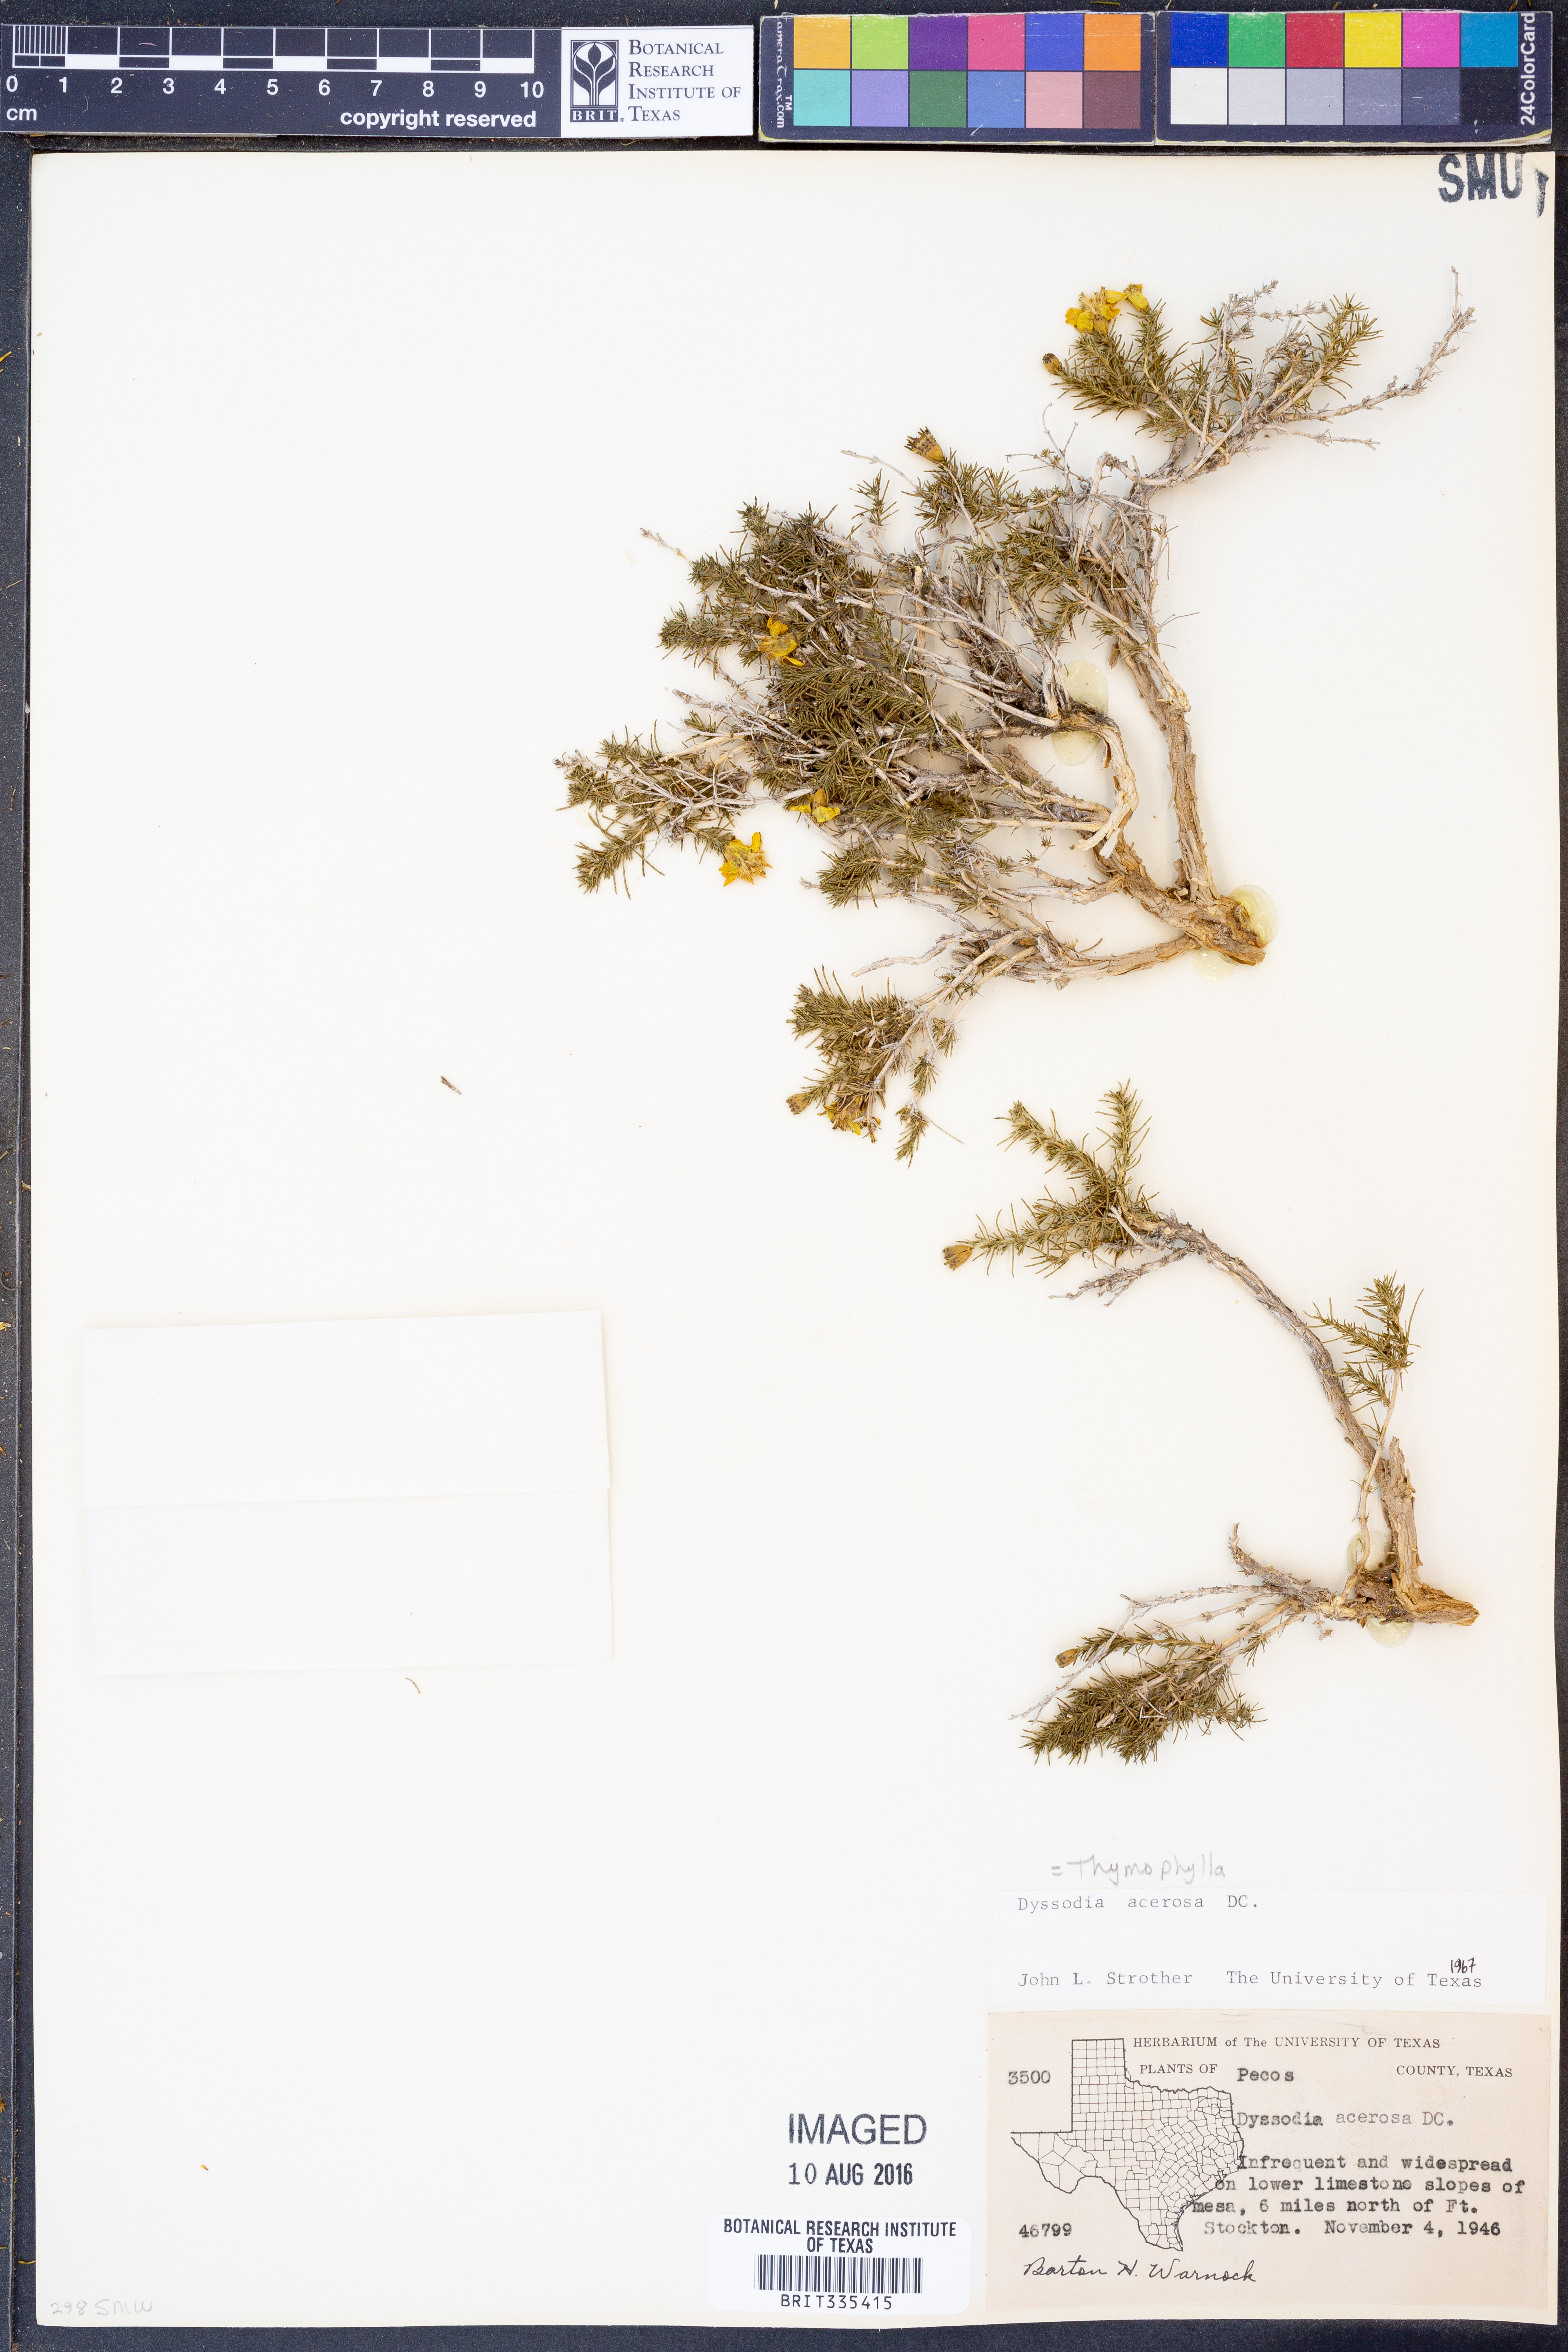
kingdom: Plantae
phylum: Tracheophyta
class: Magnoliopsida
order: Asterales
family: Asteraceae
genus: Thymophylla
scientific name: Thymophylla acerosa
